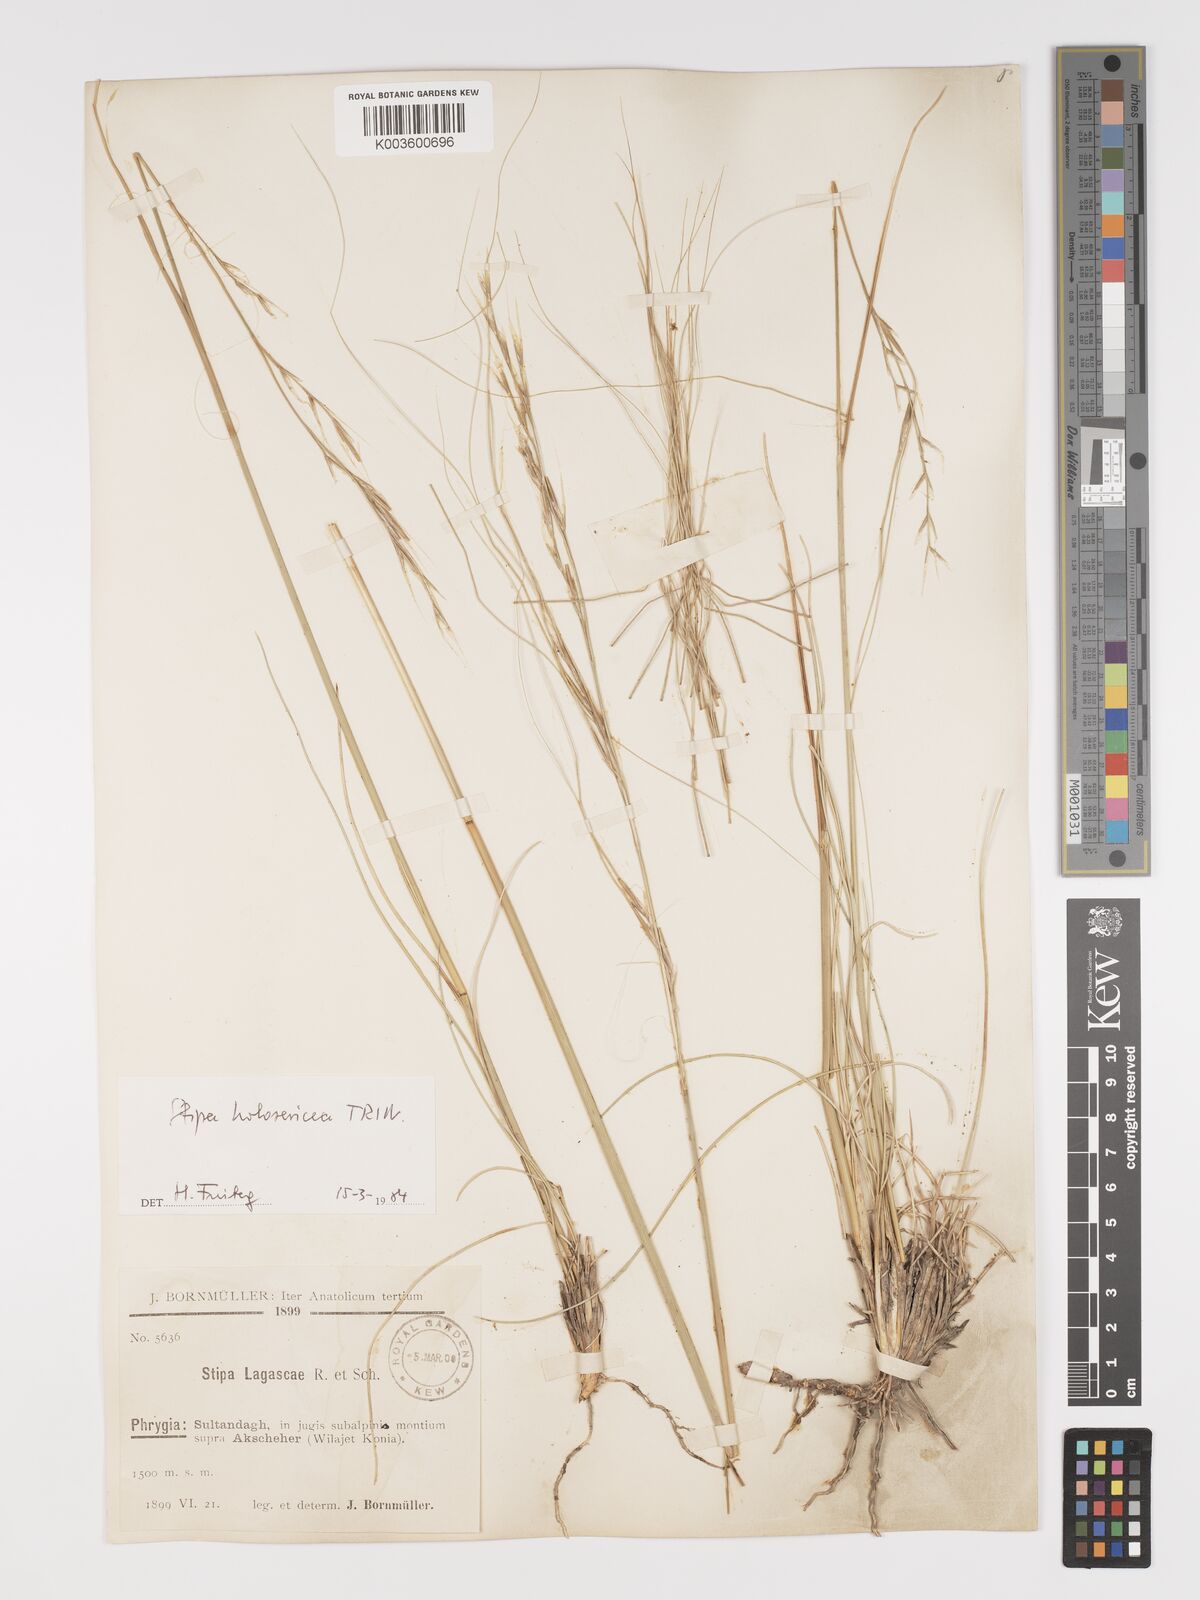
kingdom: Plantae
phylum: Tracheophyta
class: Liliopsida
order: Poales
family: Poaceae
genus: Stipa
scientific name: Stipa holosericea
